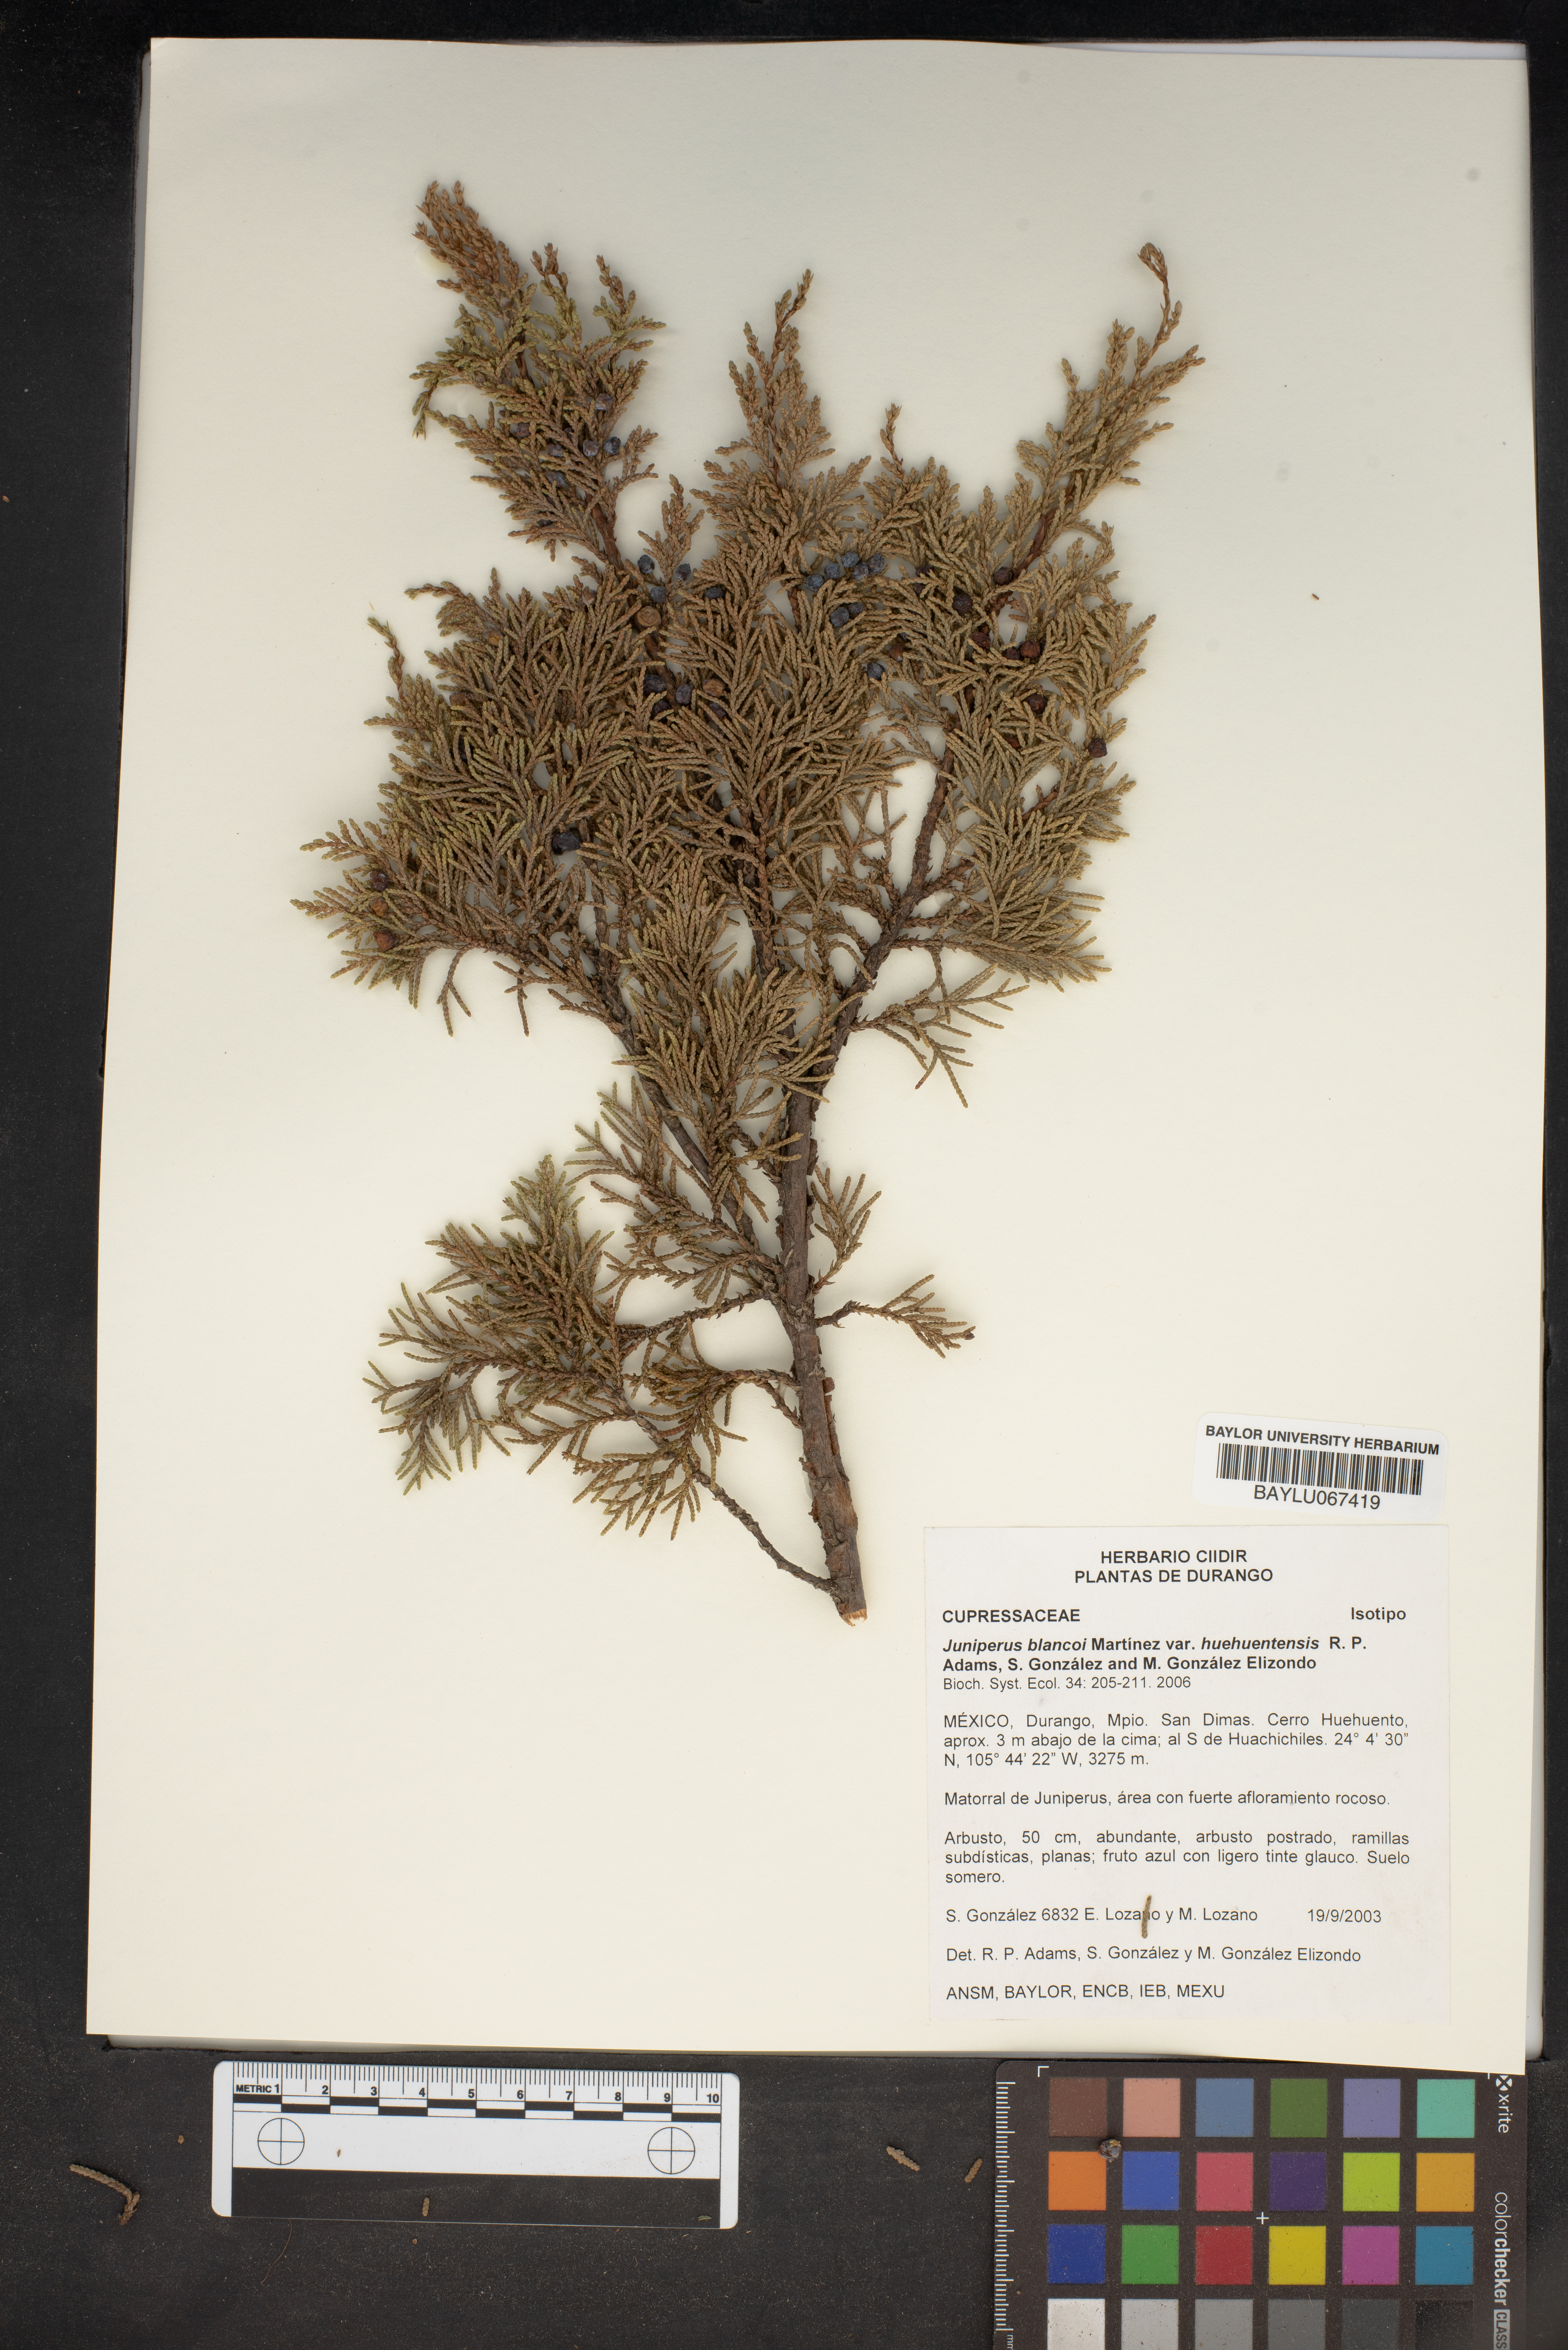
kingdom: Plantae
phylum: Tracheophyta
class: Pinopsida
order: Pinales
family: Cupressaceae
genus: Juniperus
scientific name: Juniperus blancoi
